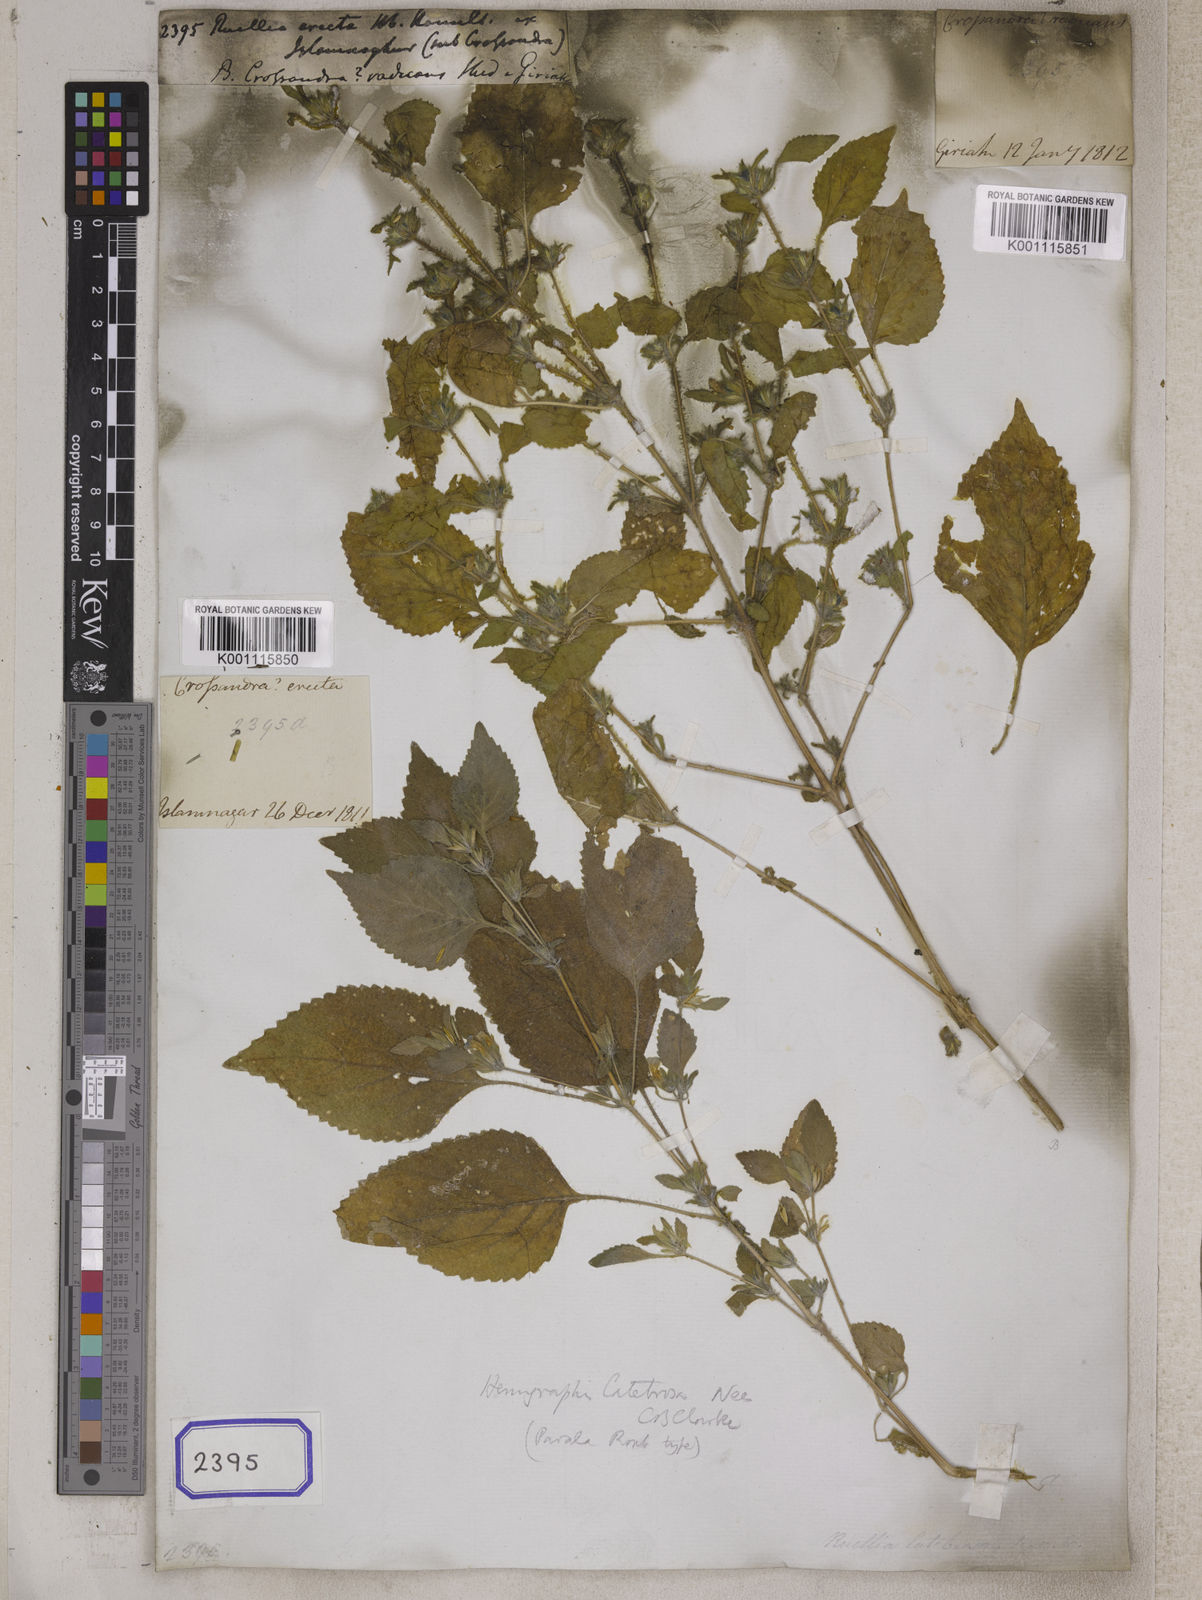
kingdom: Plantae
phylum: Tracheophyta
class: Magnoliopsida
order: Lamiales
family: Acanthaceae
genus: Strobilanthes
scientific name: Strobilanthes pavala
